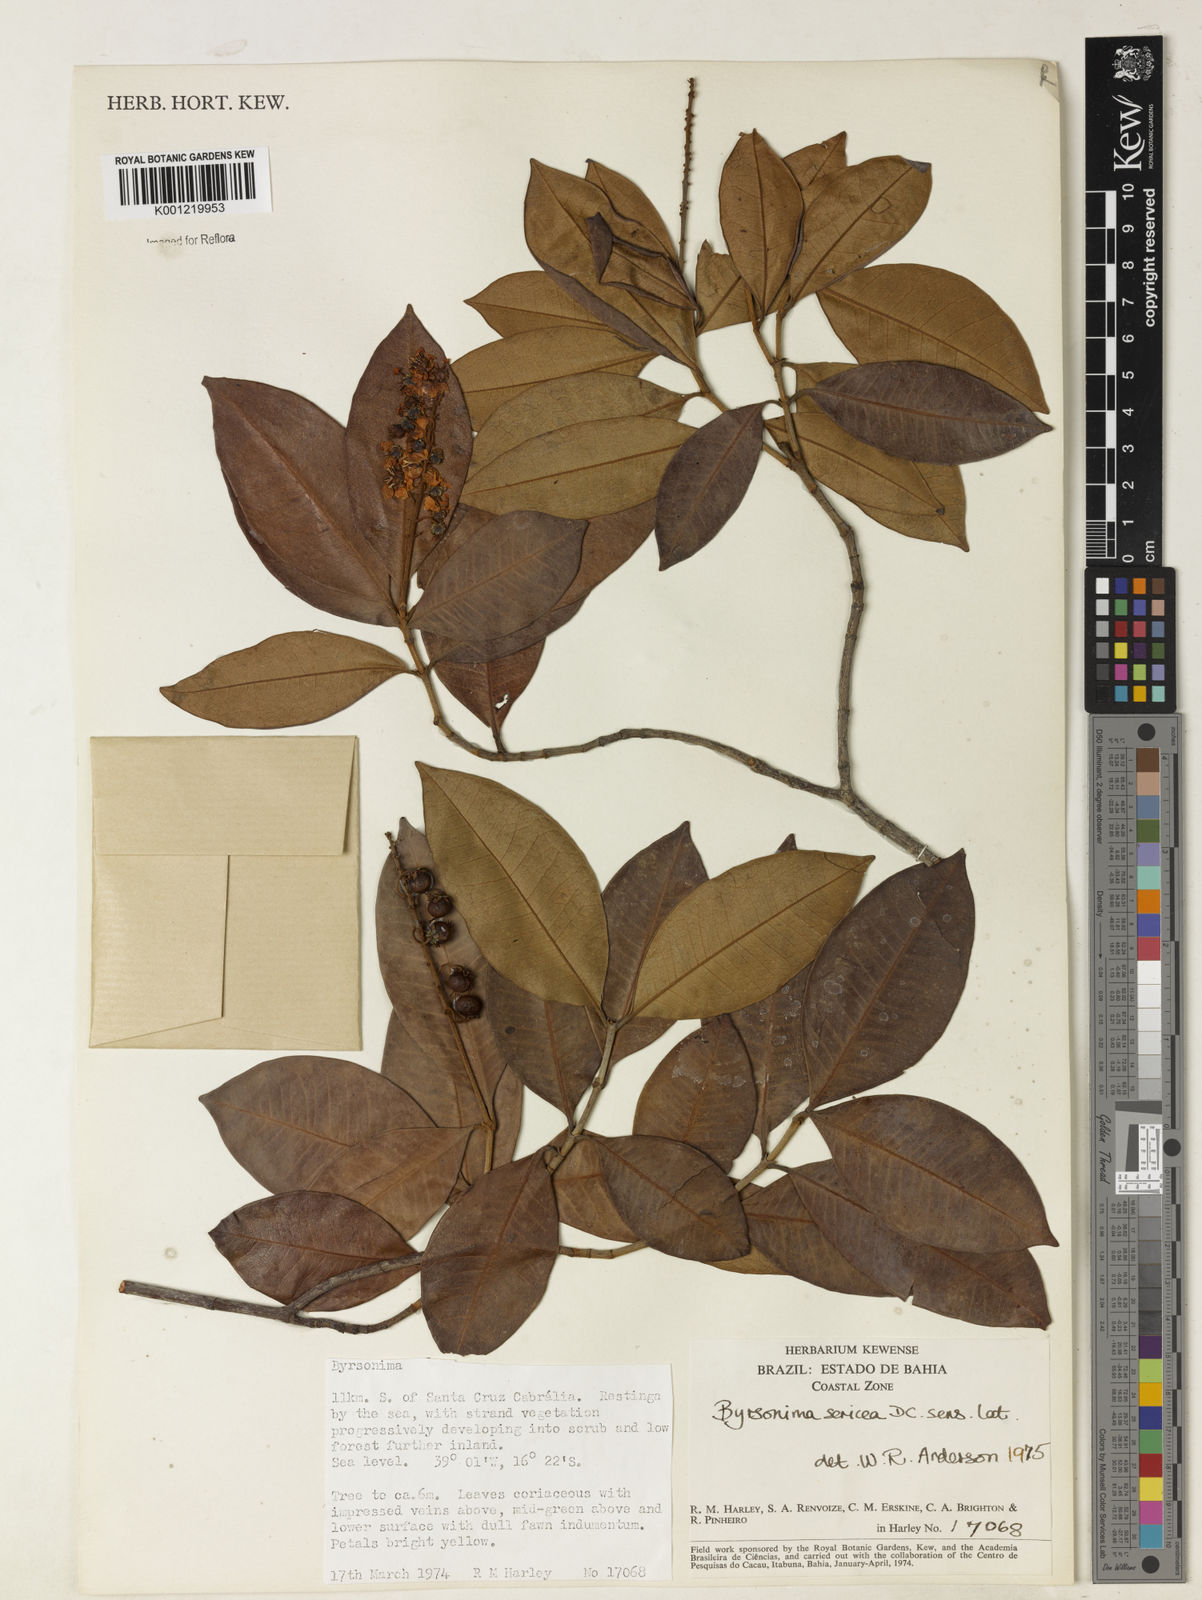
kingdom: Plantae
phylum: Tracheophyta
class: Magnoliopsida
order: Malpighiales
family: Malpighiaceae
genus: Byrsonima
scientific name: Byrsonima sericea
